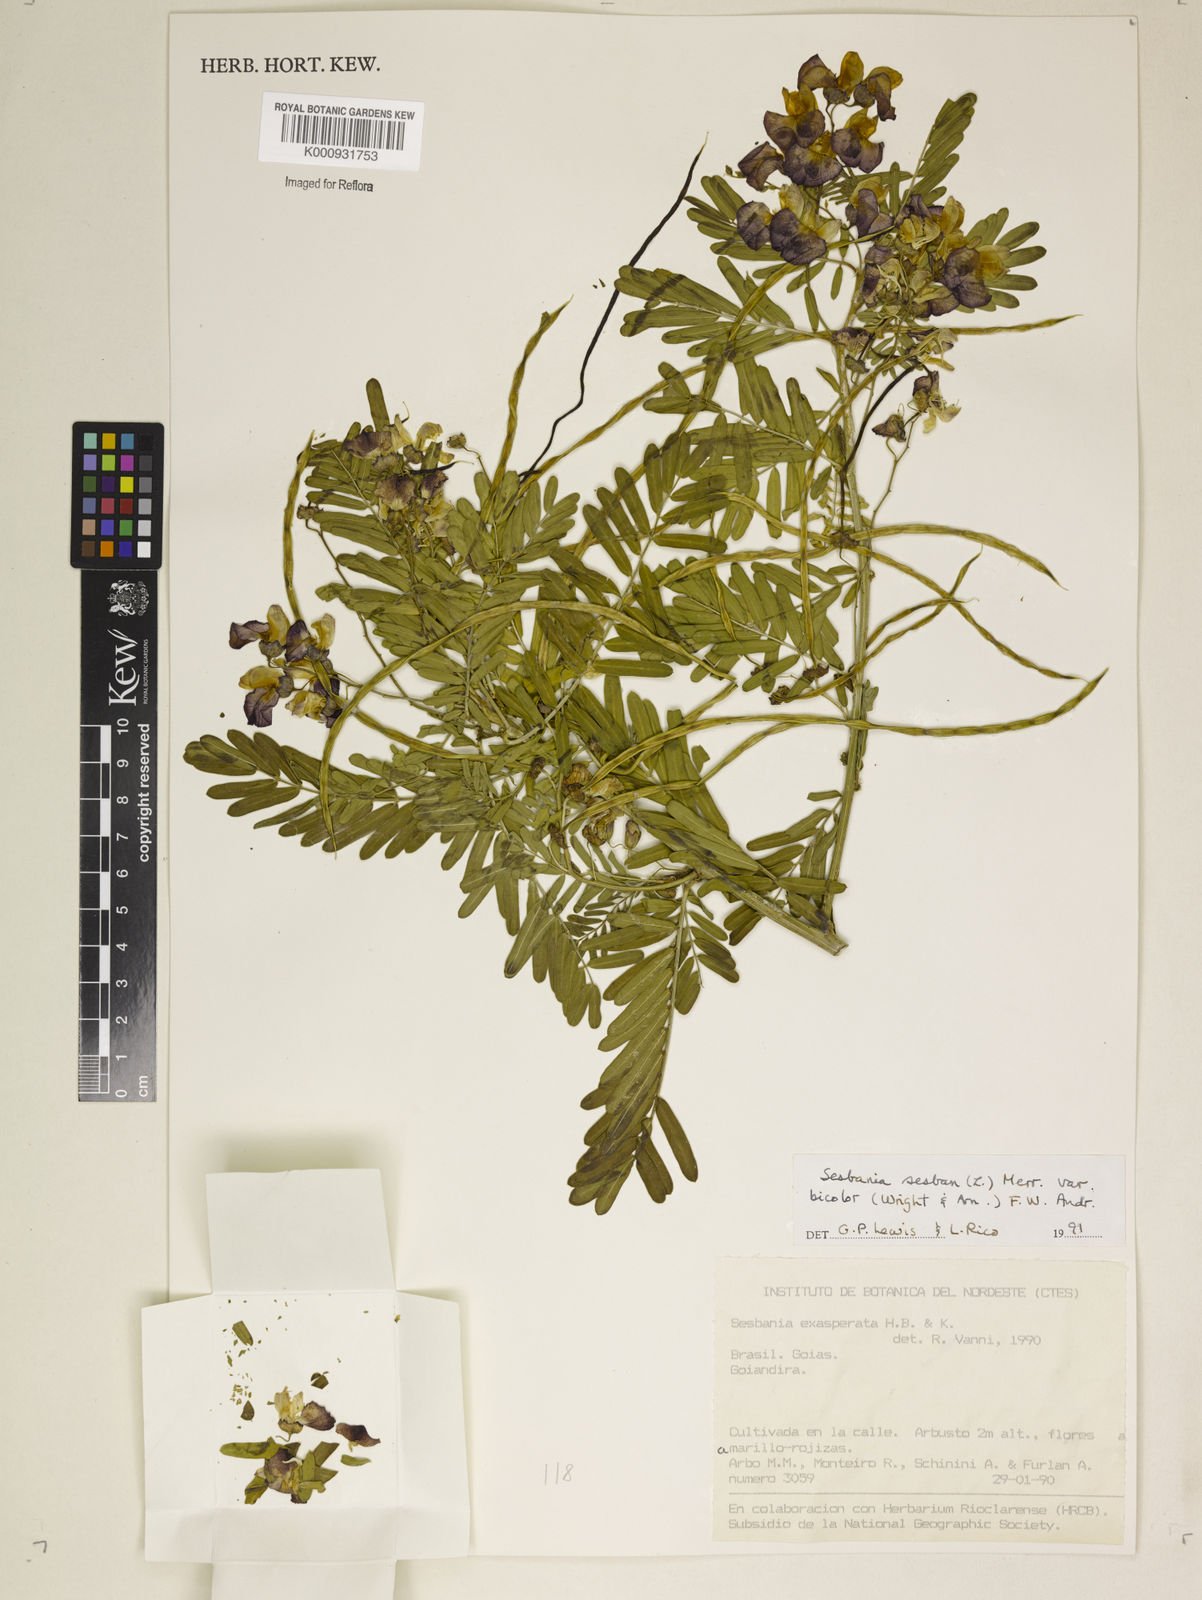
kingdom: Plantae
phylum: Tracheophyta
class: Magnoliopsida
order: Fabales
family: Fabaceae
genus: Sesbania
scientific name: Sesbania
